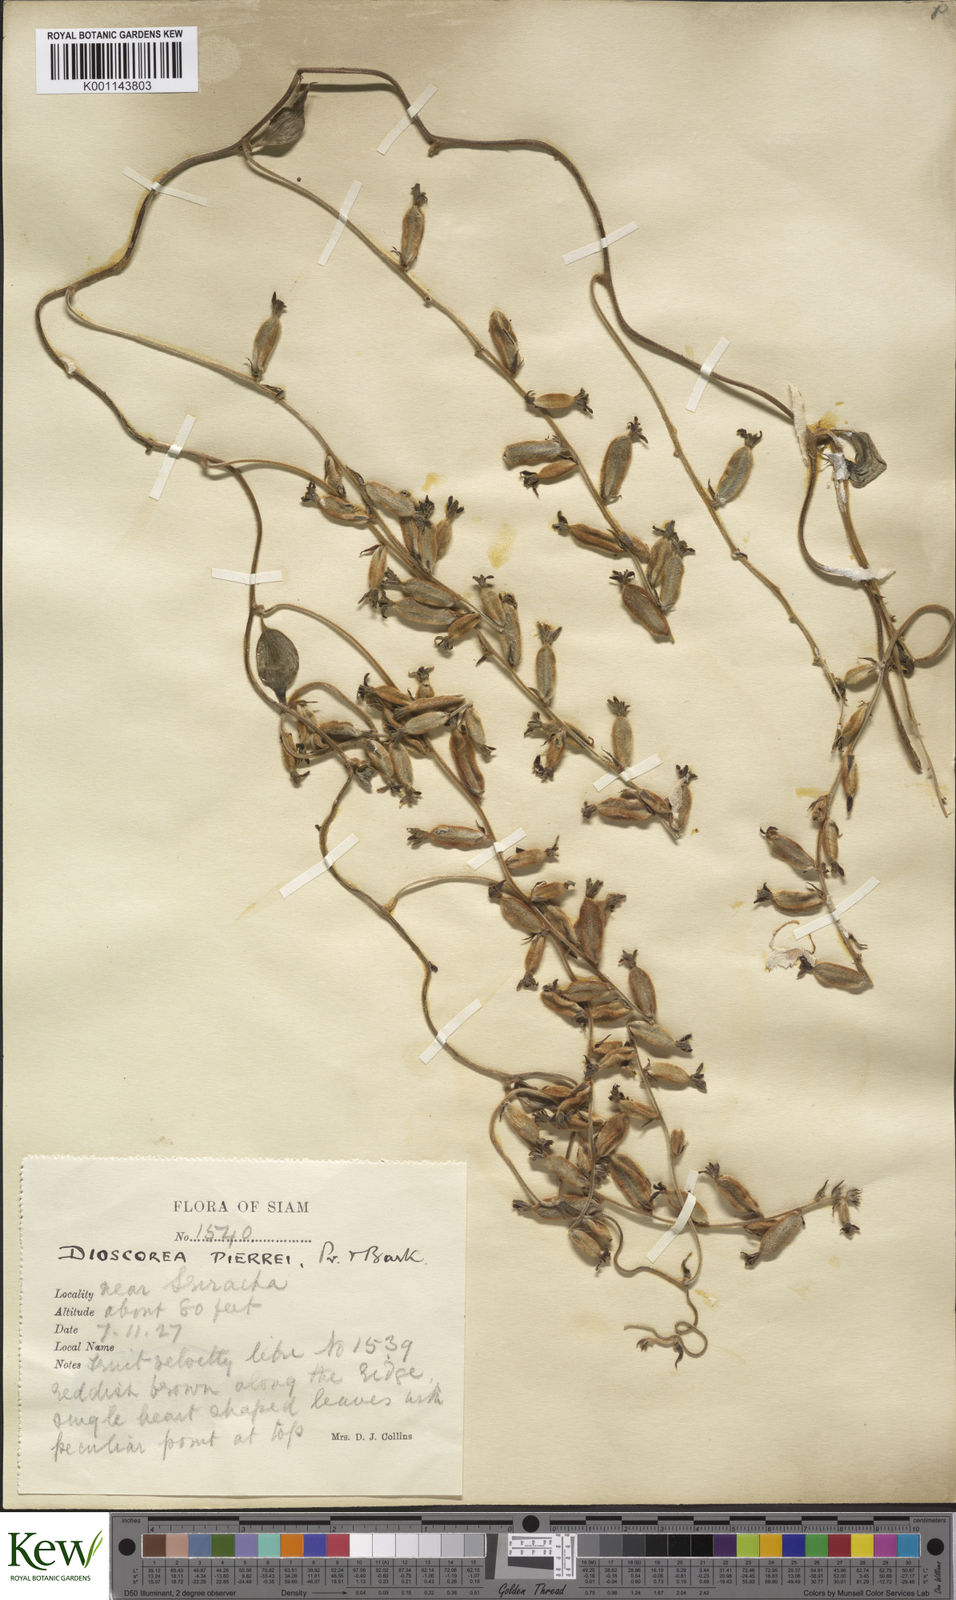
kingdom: Plantae
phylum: Tracheophyta
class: Liliopsida
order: Dioscoreales
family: Dioscoreaceae
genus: Dioscorea
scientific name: Dioscorea pierrei
